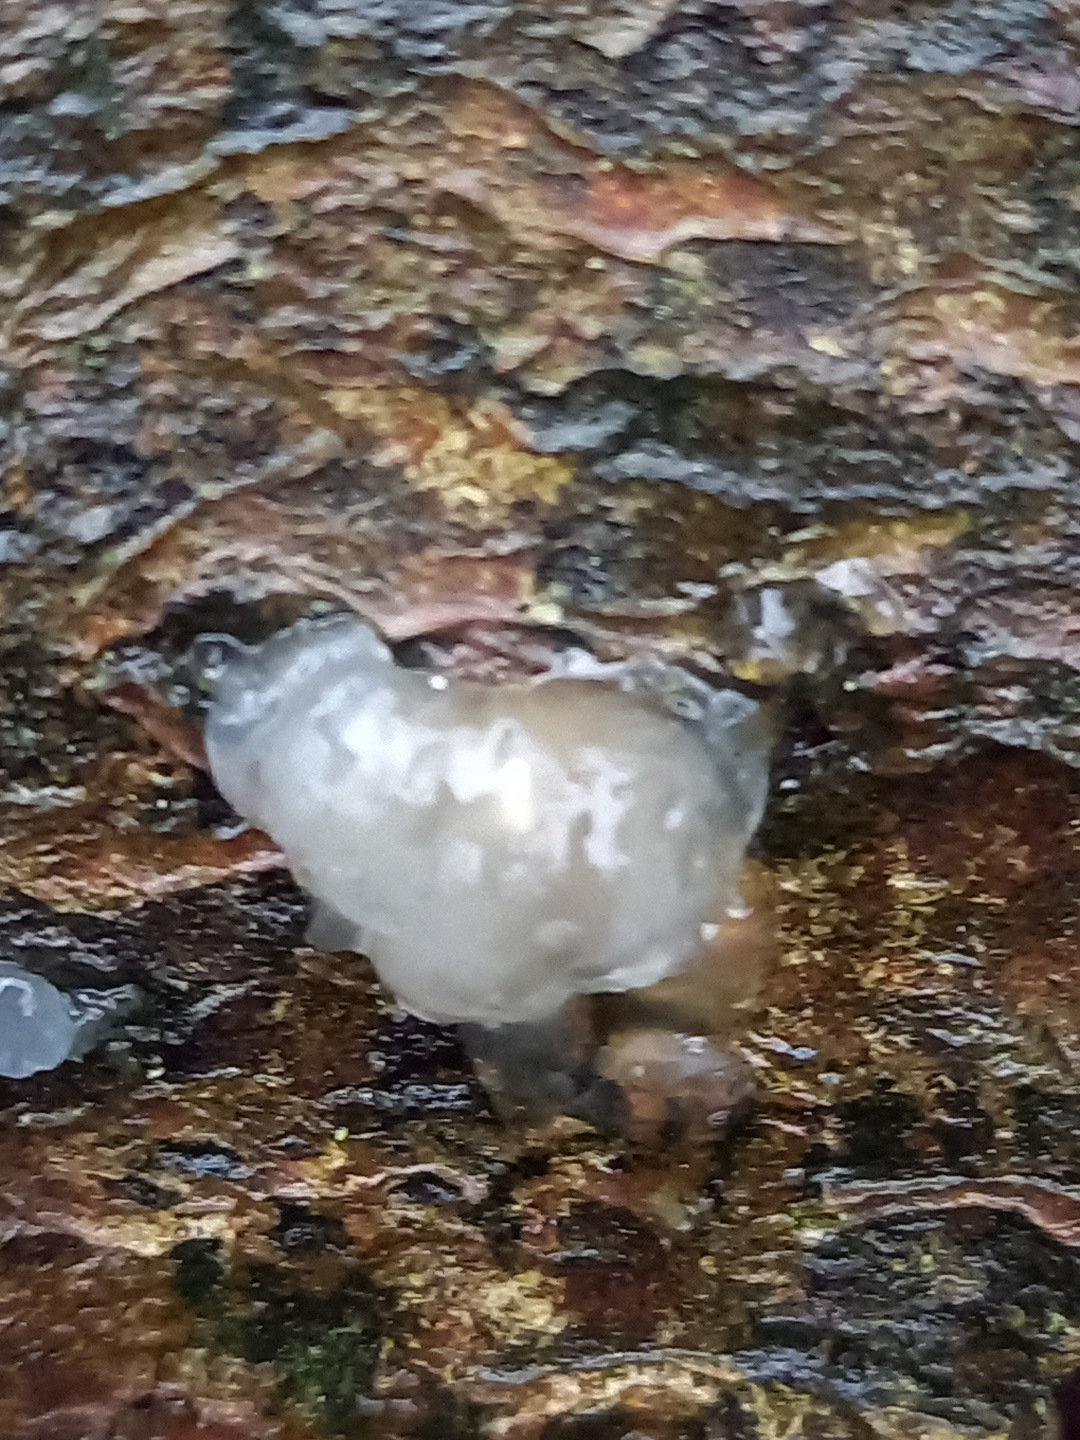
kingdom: Fungi
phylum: Basidiomycota
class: Agaricomycetes
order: Auriculariales
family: Hyaloriaceae
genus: Myxarium
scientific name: Myxarium nucleatum
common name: klar bævretop
